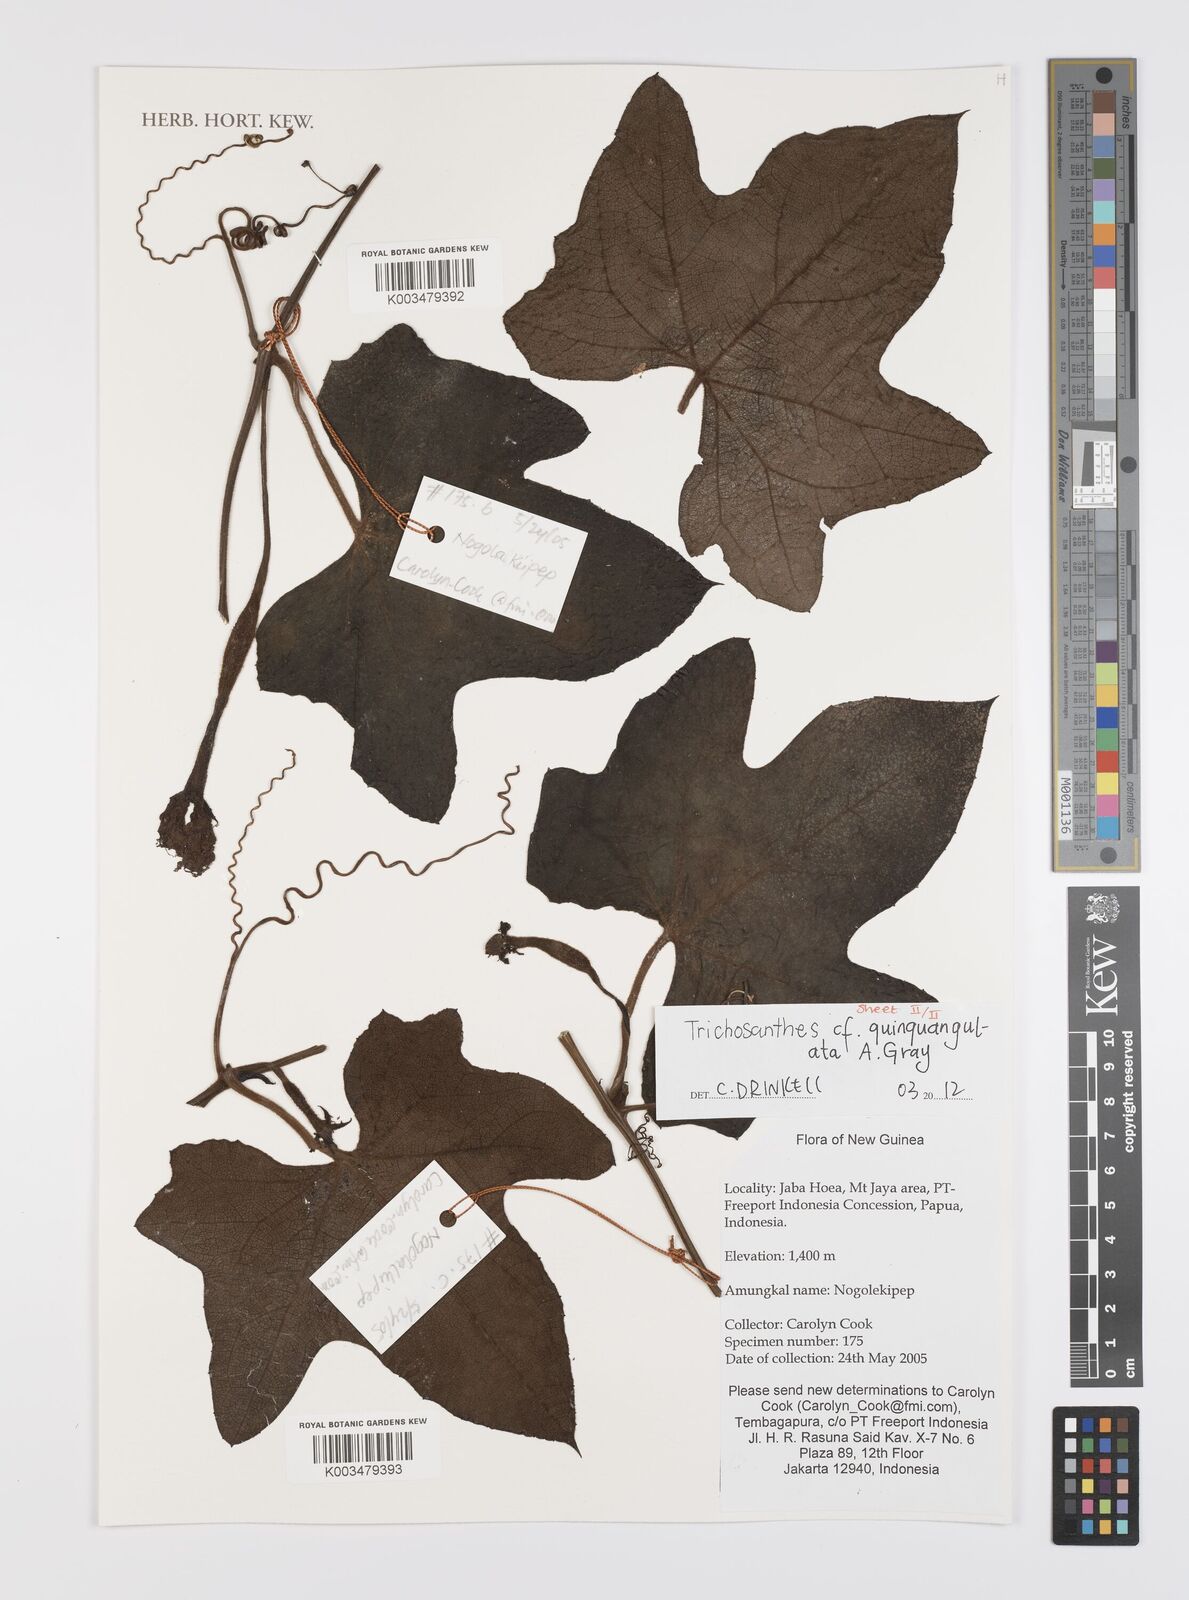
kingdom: Plantae
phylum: Tracheophyta
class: Magnoliopsida
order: Cucurbitales
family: Cucurbitaceae
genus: Trichosanthes
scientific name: Trichosanthes tricuspidata
